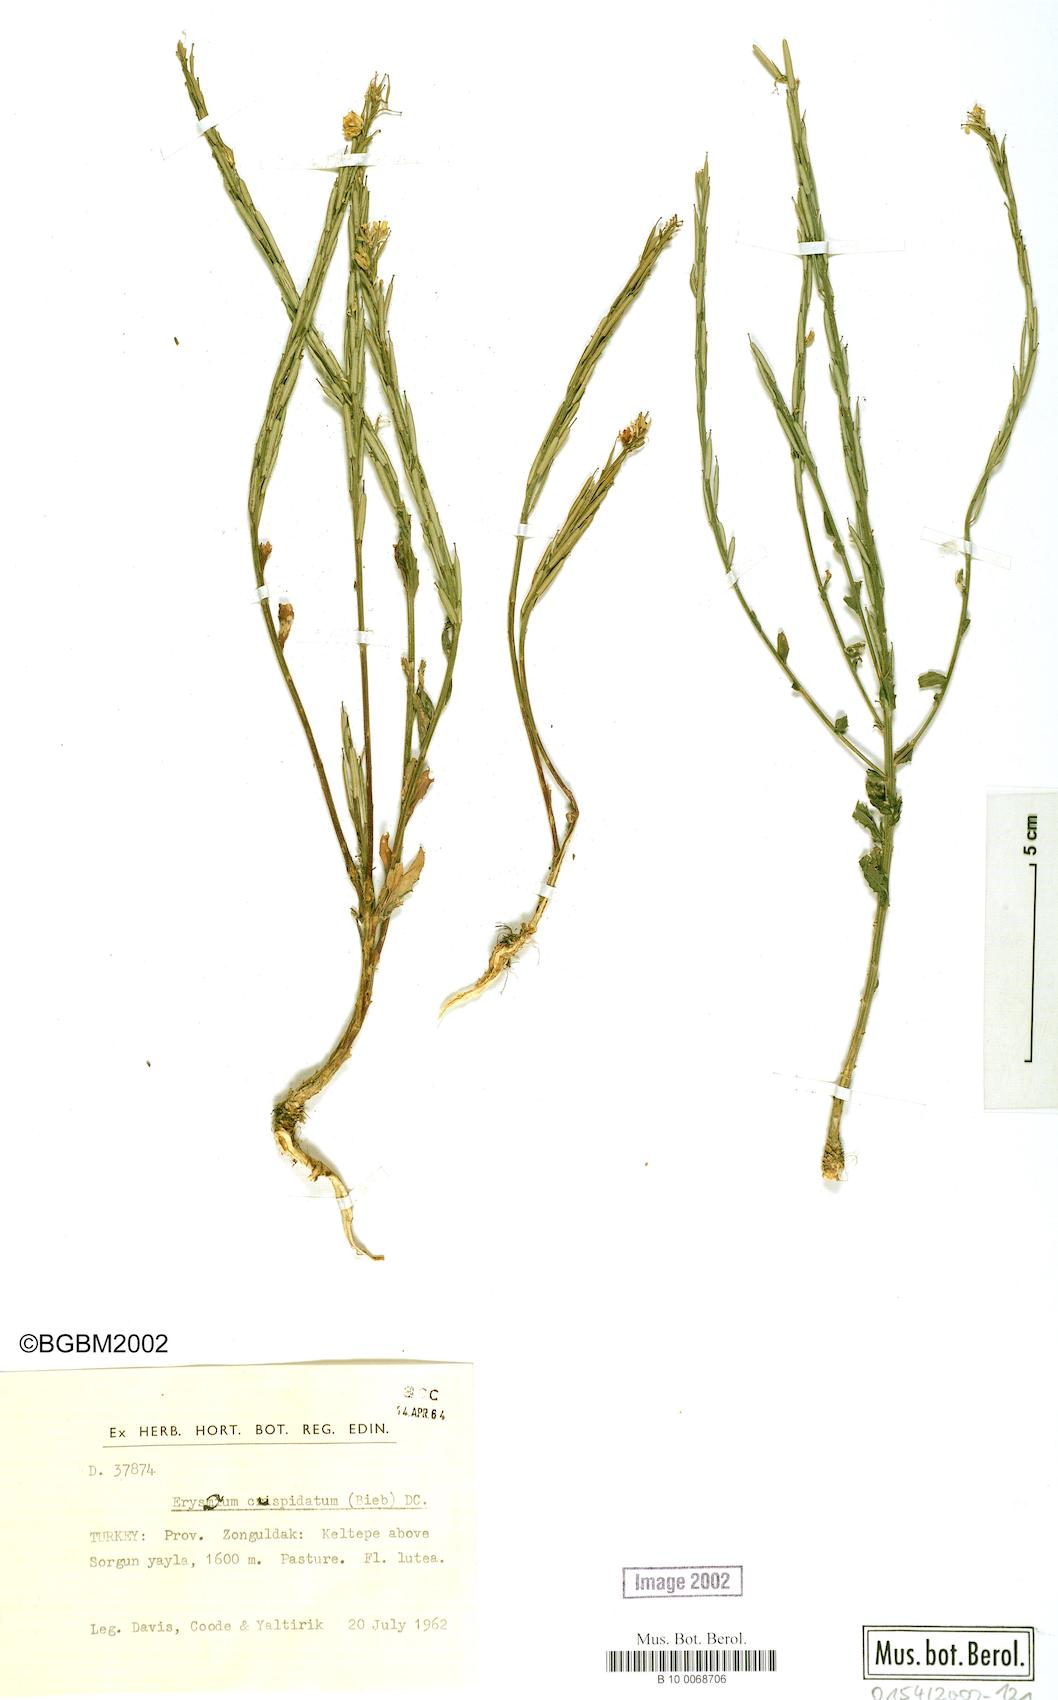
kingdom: Plantae
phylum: Tracheophyta
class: Magnoliopsida
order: Brassicales
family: Brassicaceae
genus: Erysimum
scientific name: Erysimum cuspidatum
